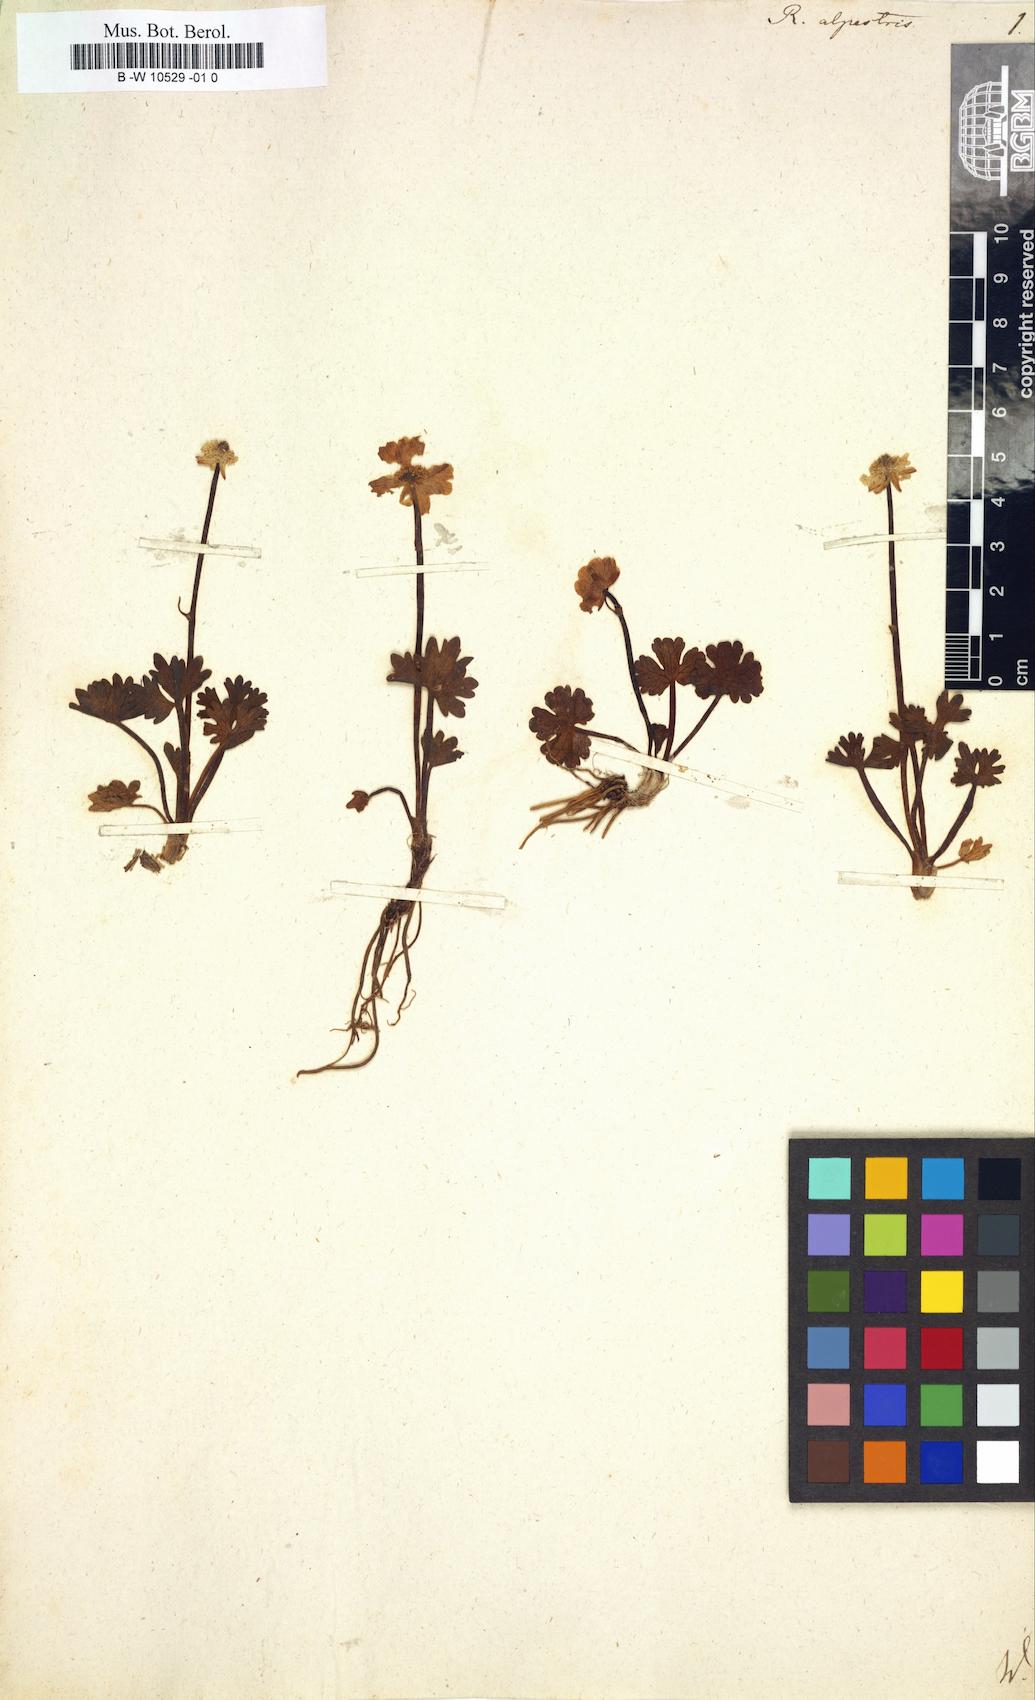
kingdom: Plantae
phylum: Tracheophyta
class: Magnoliopsida
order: Ranunculales
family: Ranunculaceae
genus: Ranunculus
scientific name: Ranunculus alpestris
